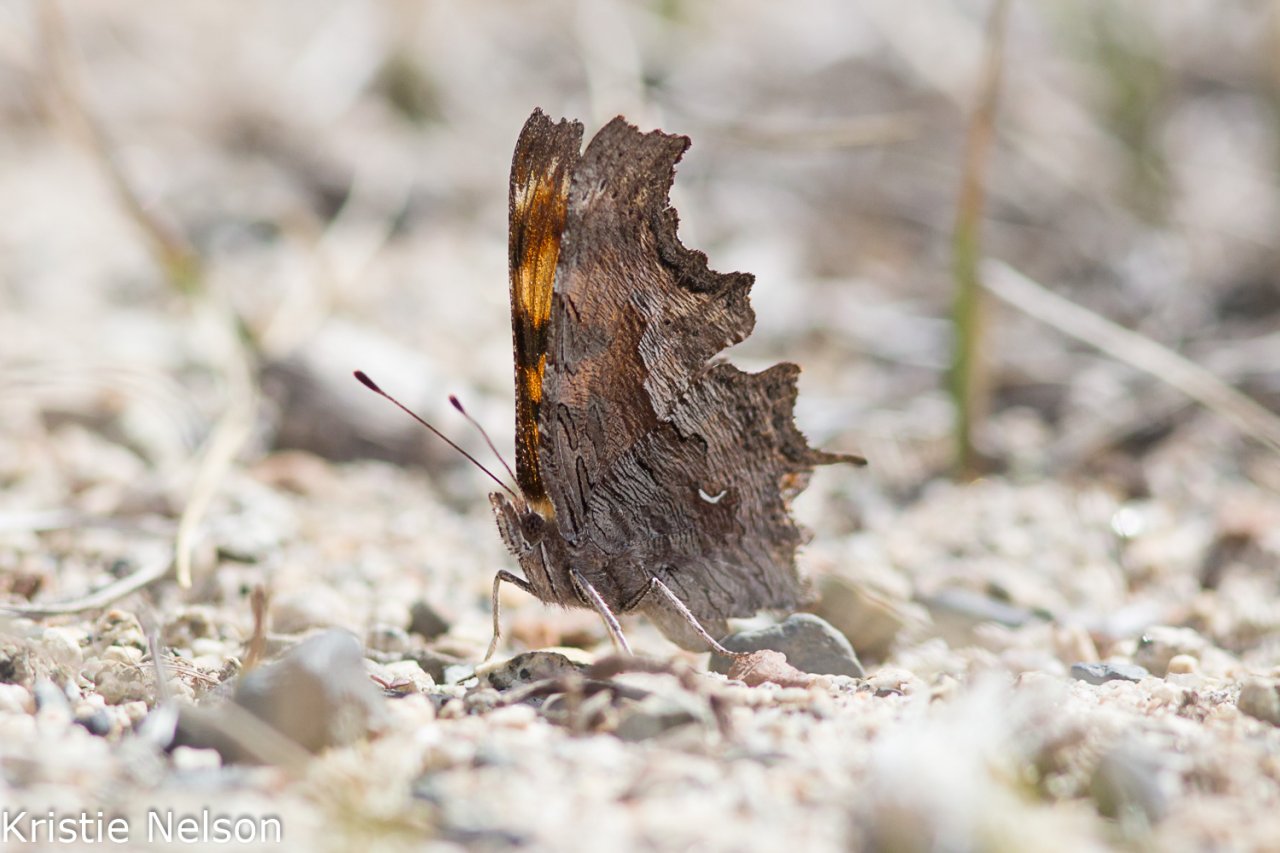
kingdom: Animalia
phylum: Arthropoda
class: Insecta
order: Lepidoptera
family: Nymphalidae
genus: Polygonia
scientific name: Polygonia gracilis
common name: Hoary Comma
